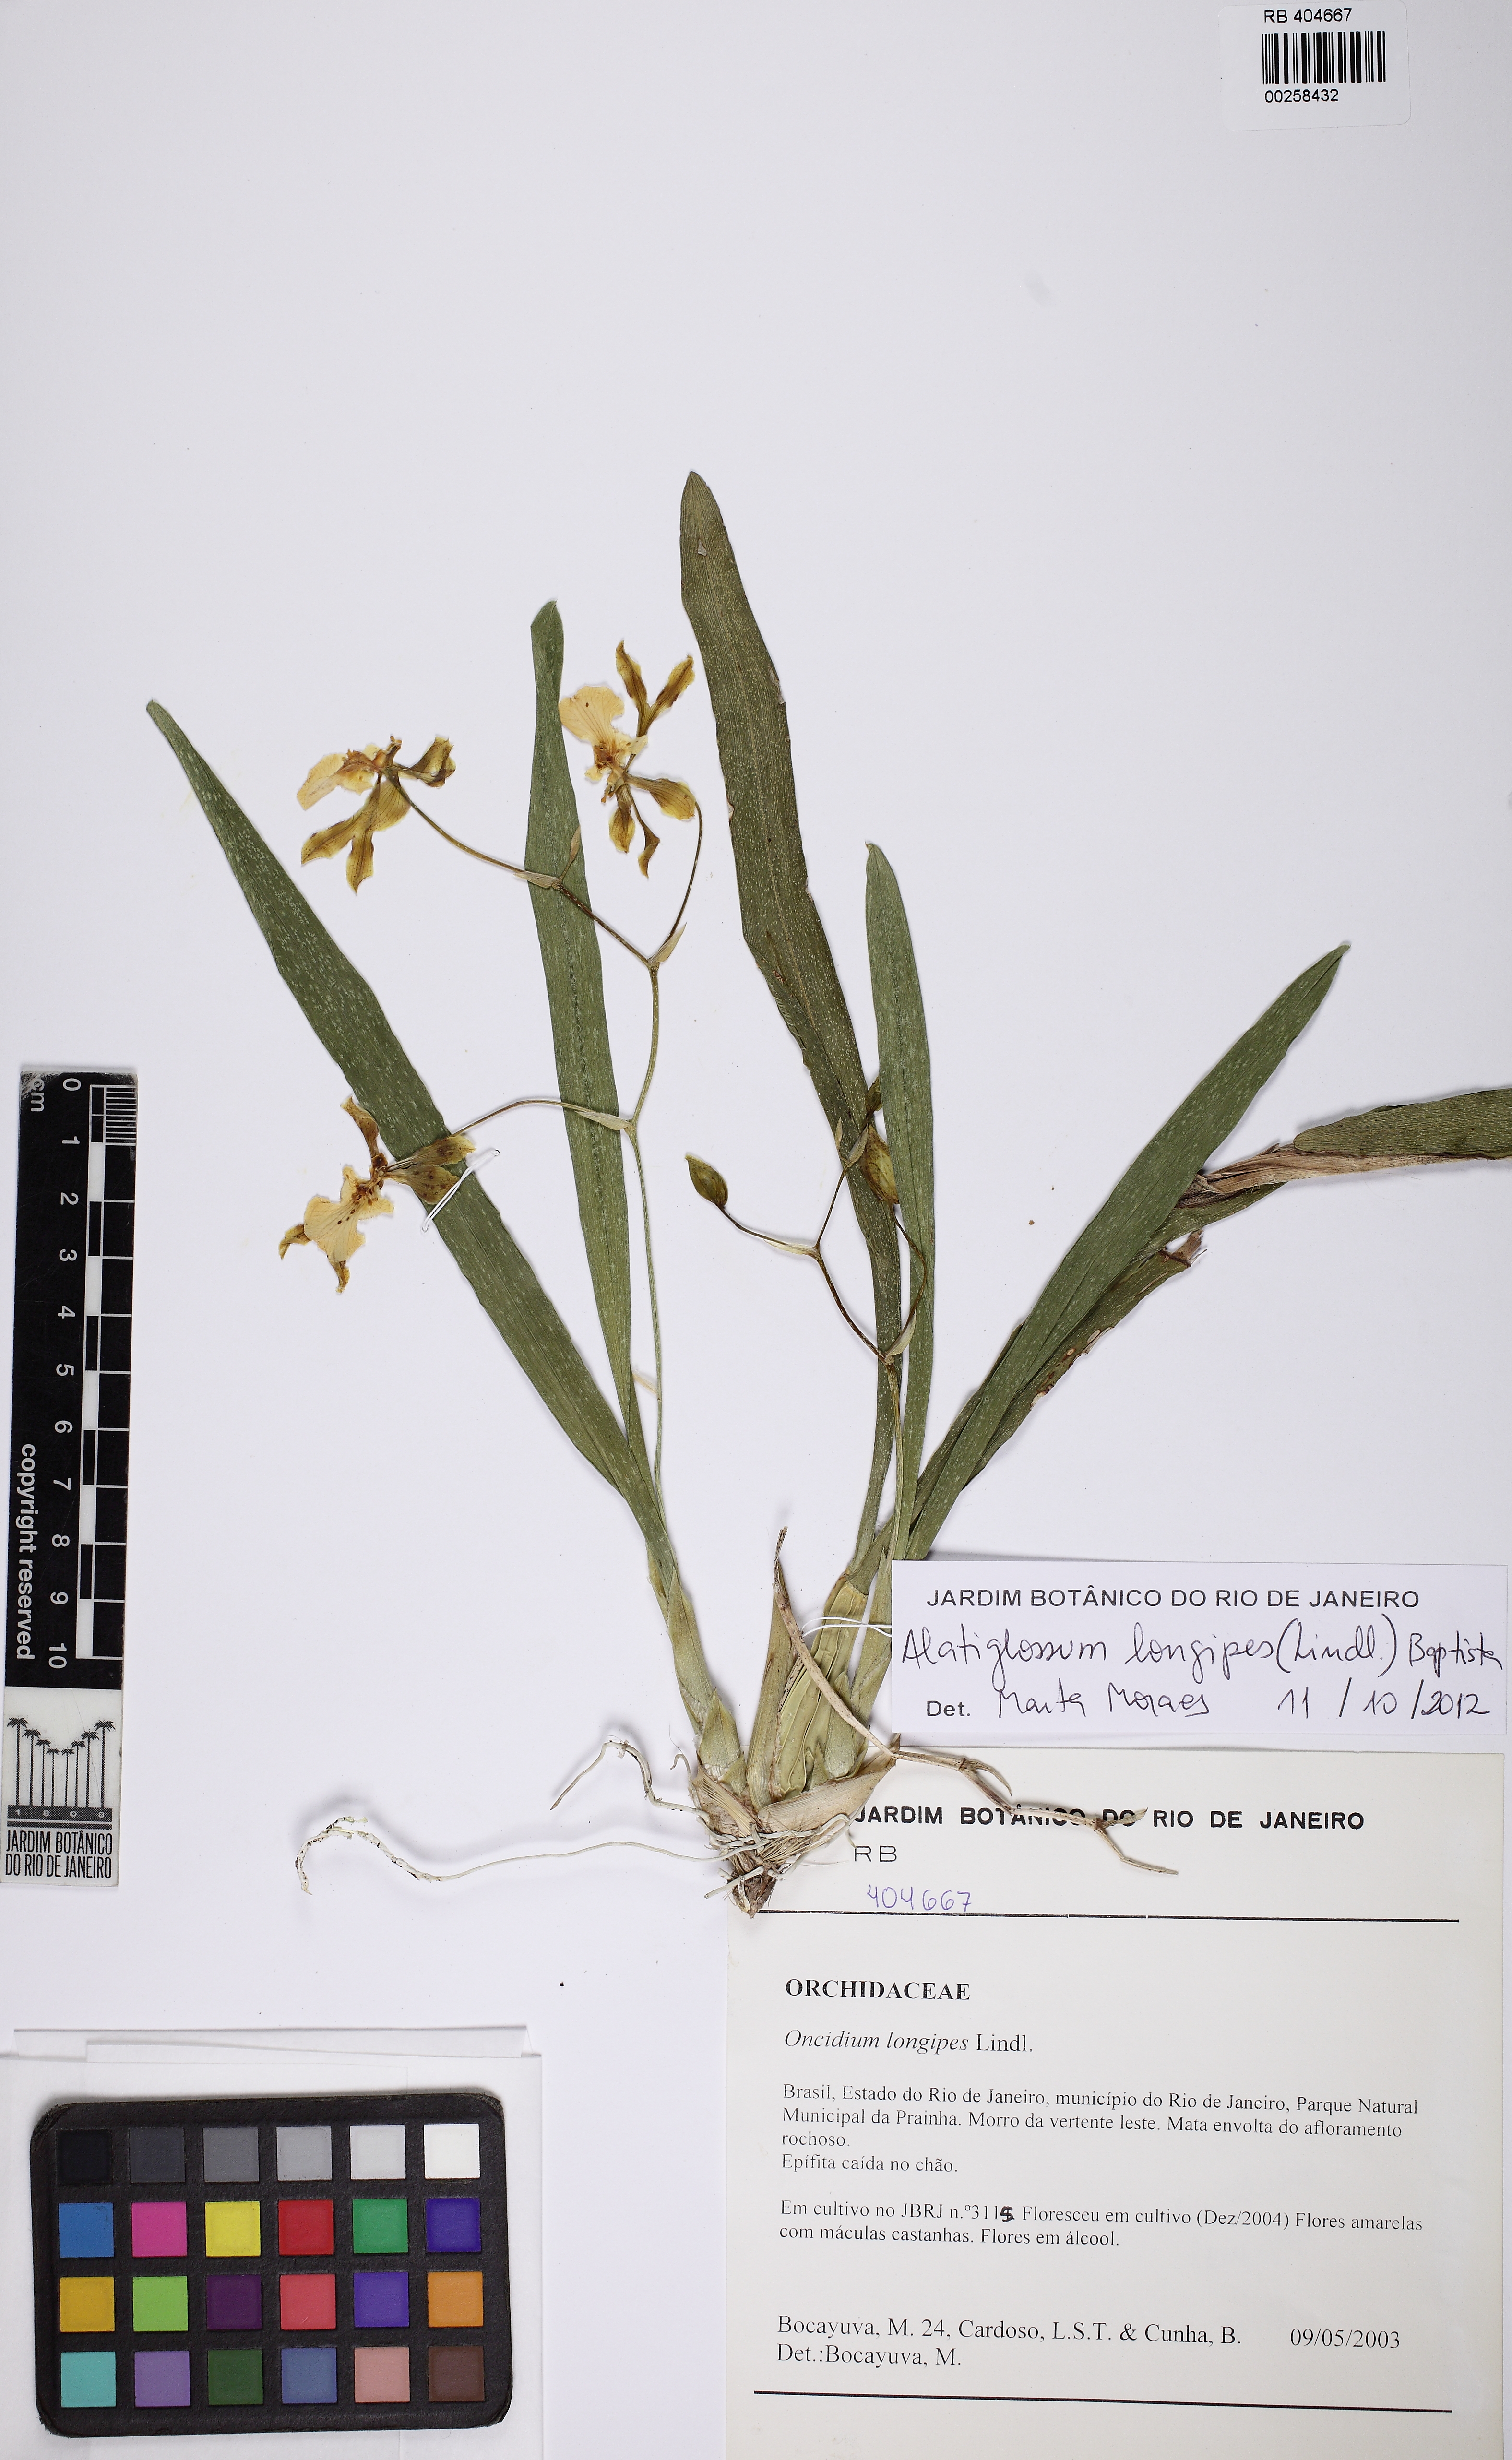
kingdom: Plantae
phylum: Tracheophyta
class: Liliopsida
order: Asparagales
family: Orchidaceae
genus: Gomesa
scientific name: Gomesa uniflora
